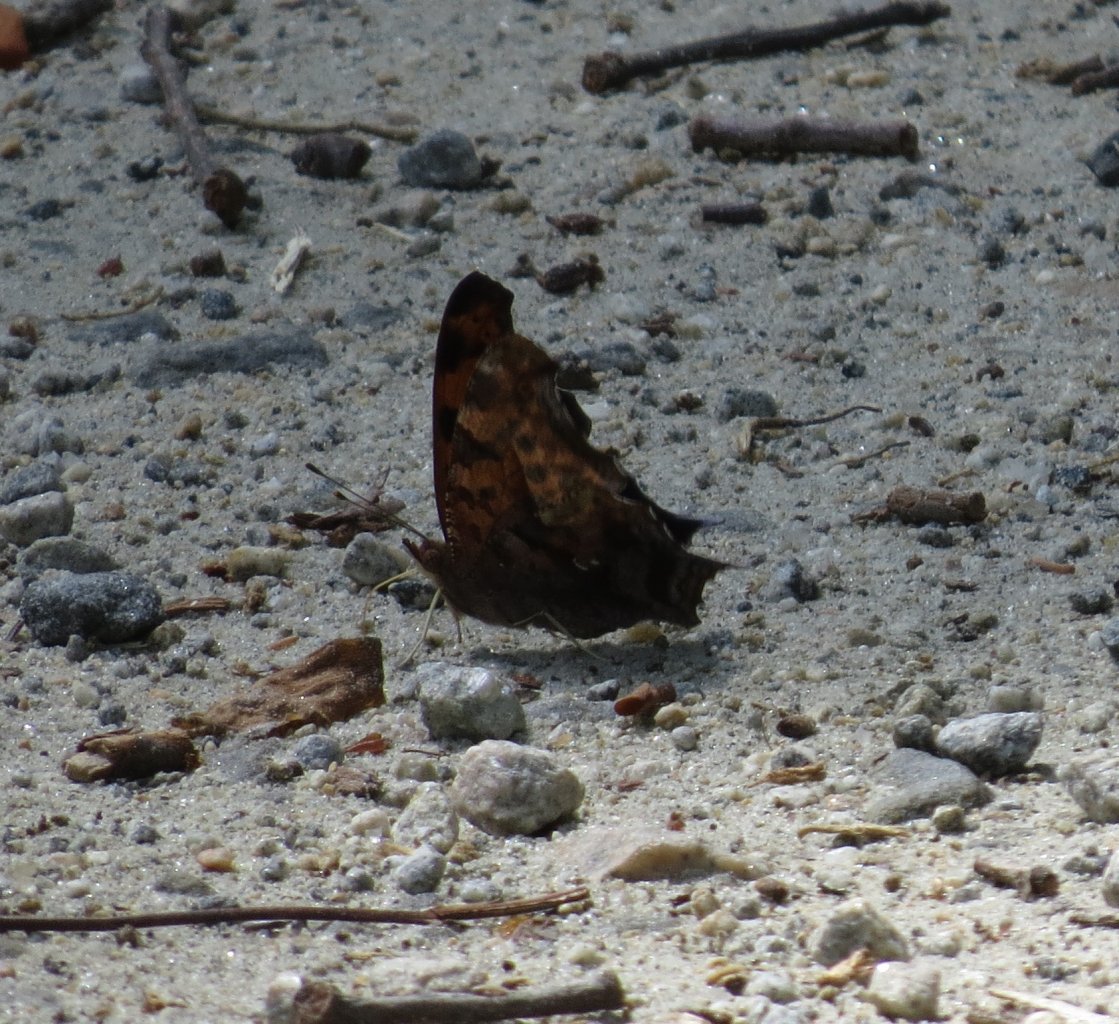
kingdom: Animalia
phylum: Arthropoda
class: Insecta
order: Lepidoptera
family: Nymphalidae
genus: Polygonia
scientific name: Polygonia interrogationis
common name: Question Mark
